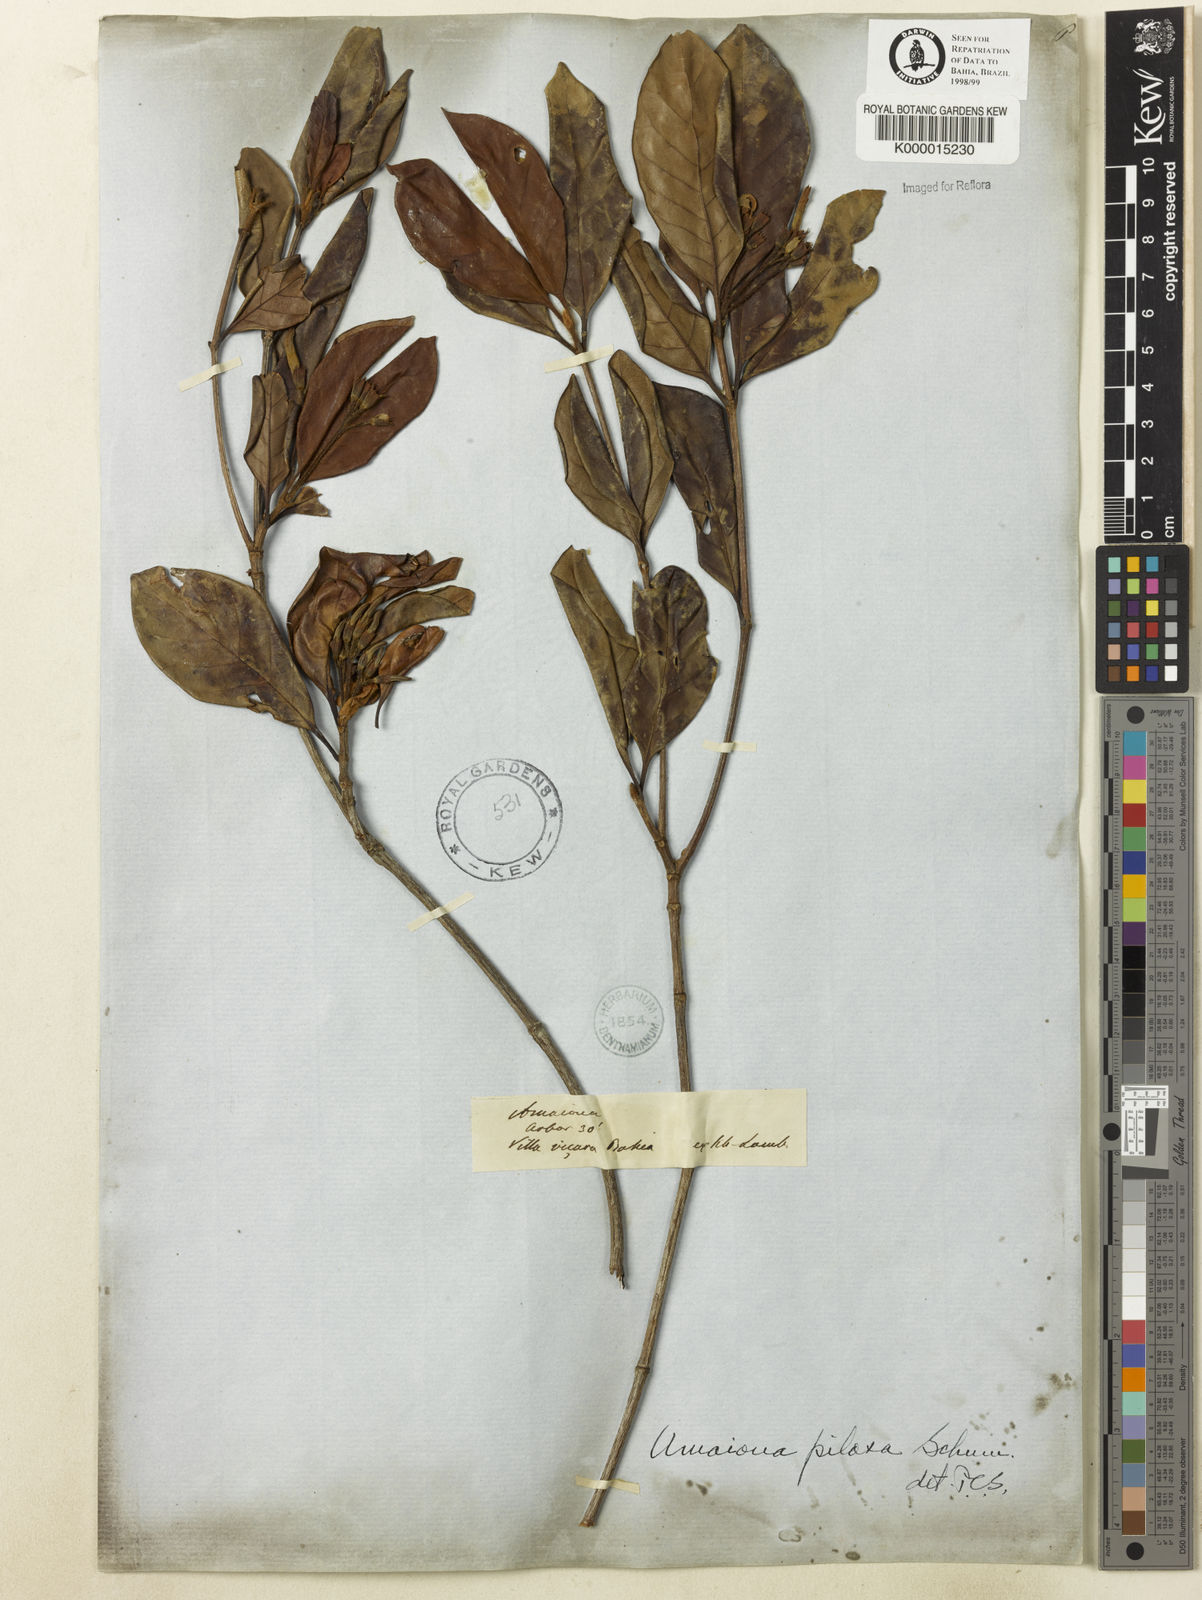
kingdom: Plantae
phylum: Tracheophyta
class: Magnoliopsida
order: Gentianales
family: Rubiaceae
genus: Amaioua
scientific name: Amaioua pilosa
